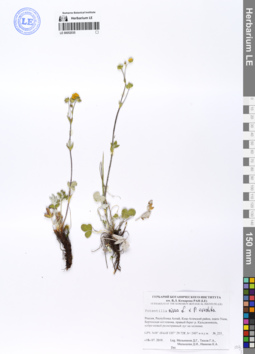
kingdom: Plantae
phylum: Tracheophyta
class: Magnoliopsida
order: Rosales
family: Rosaceae
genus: Potentilla
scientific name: Potentilla nivea
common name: Snow cinquefoil
